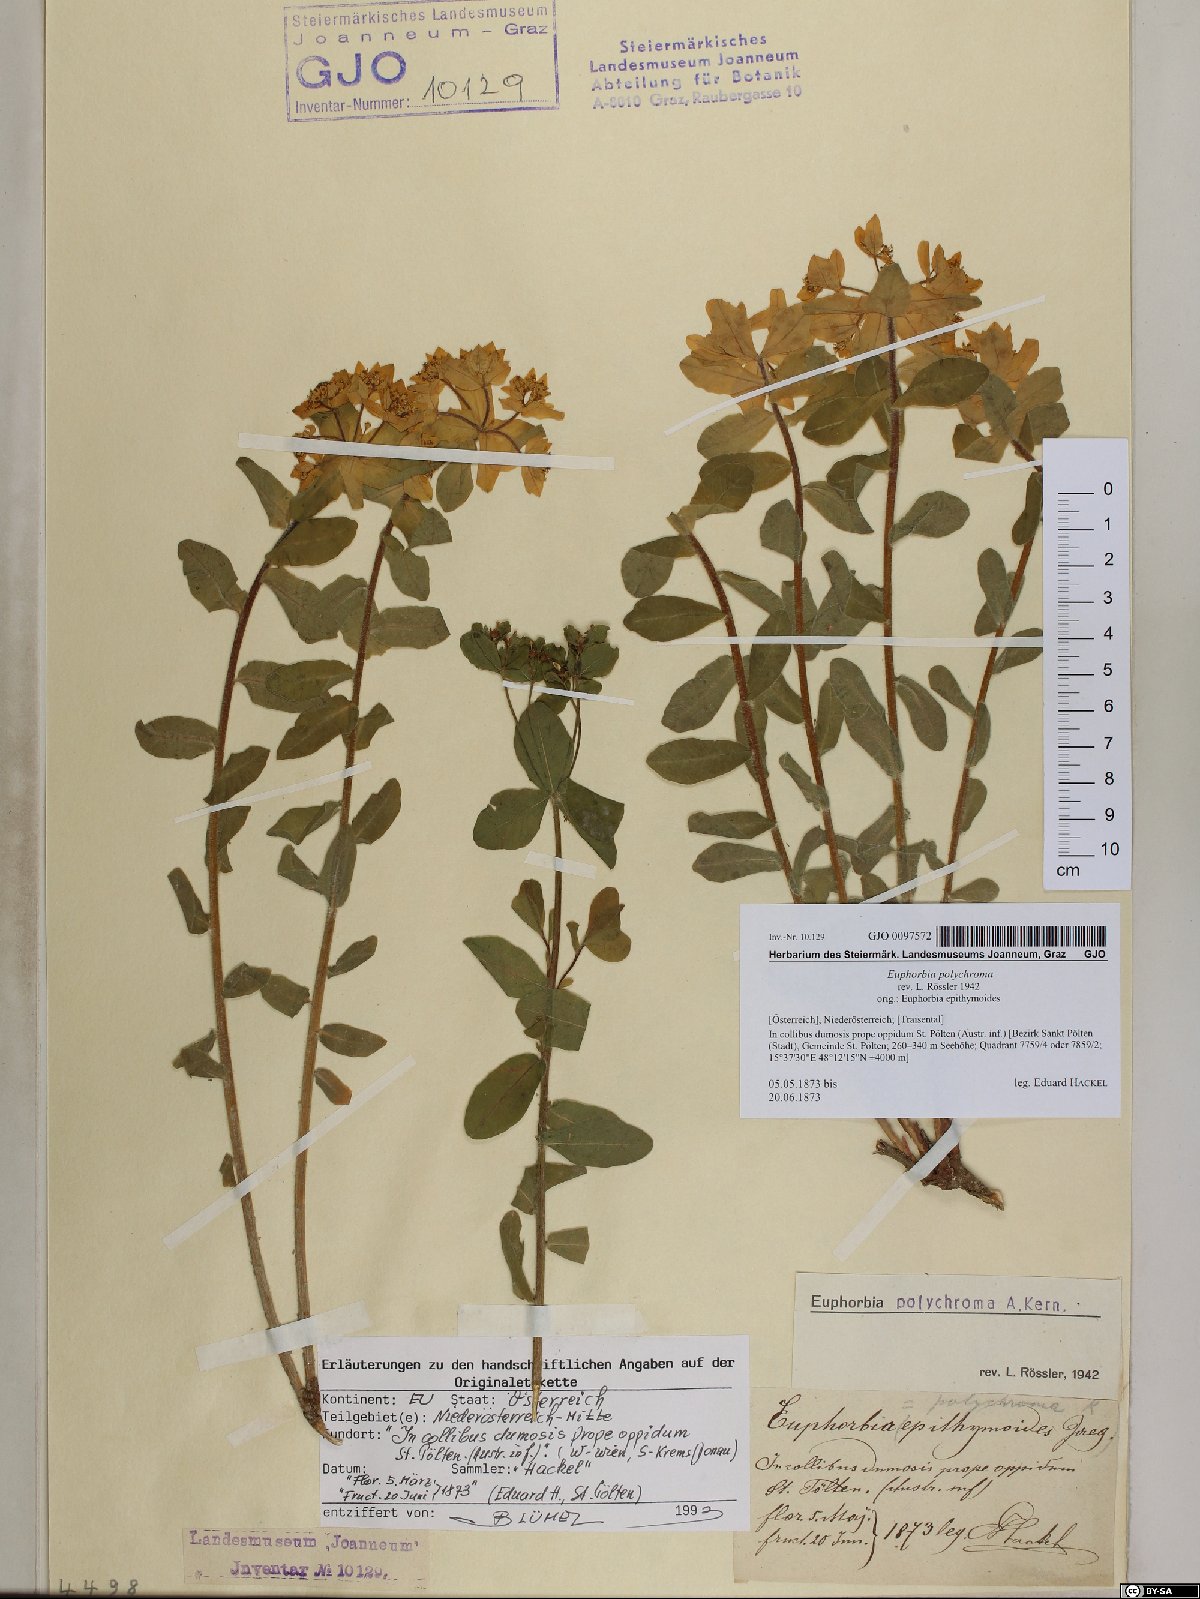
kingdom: Plantae
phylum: Tracheophyta
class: Magnoliopsida
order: Malpighiales
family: Euphorbiaceae
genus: Euphorbia
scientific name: Euphorbia epithymoides
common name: Cushion spurge
